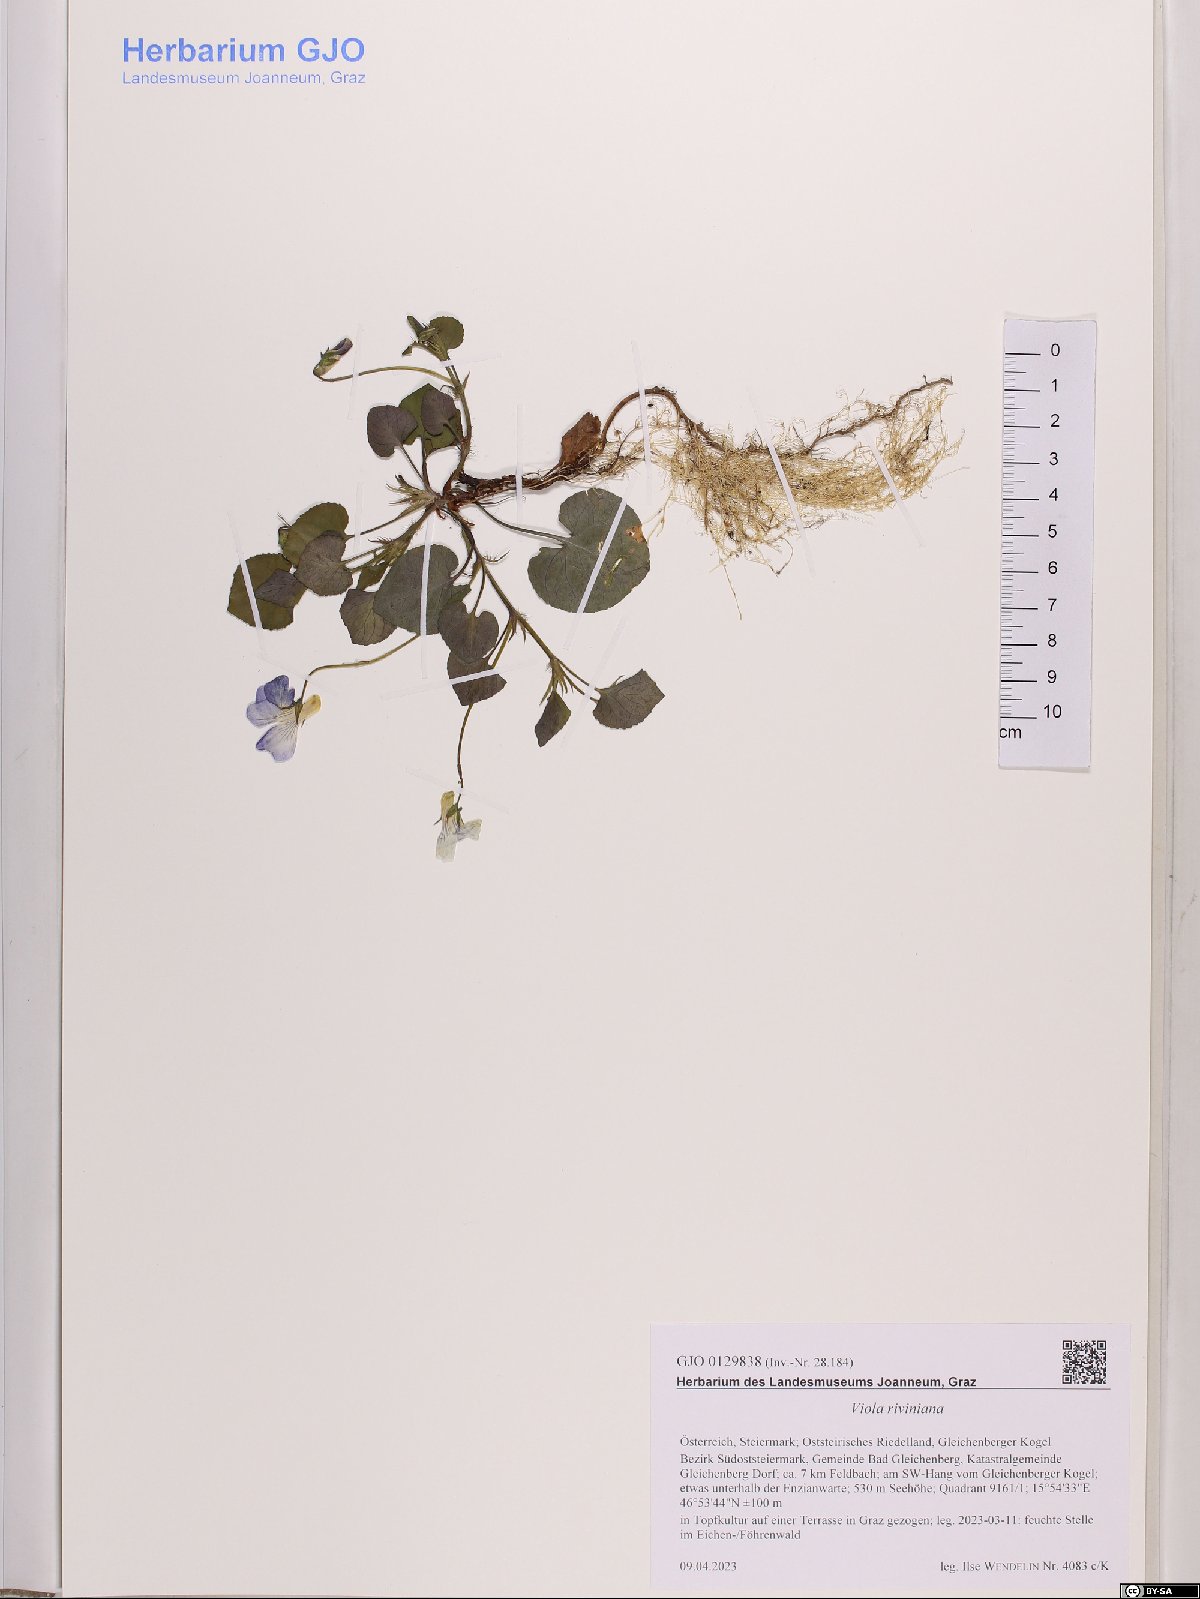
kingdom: Plantae
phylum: Tracheophyta
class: Magnoliopsida
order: Malpighiales
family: Violaceae
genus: Viola
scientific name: Viola riviniana
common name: Common dog-violet
